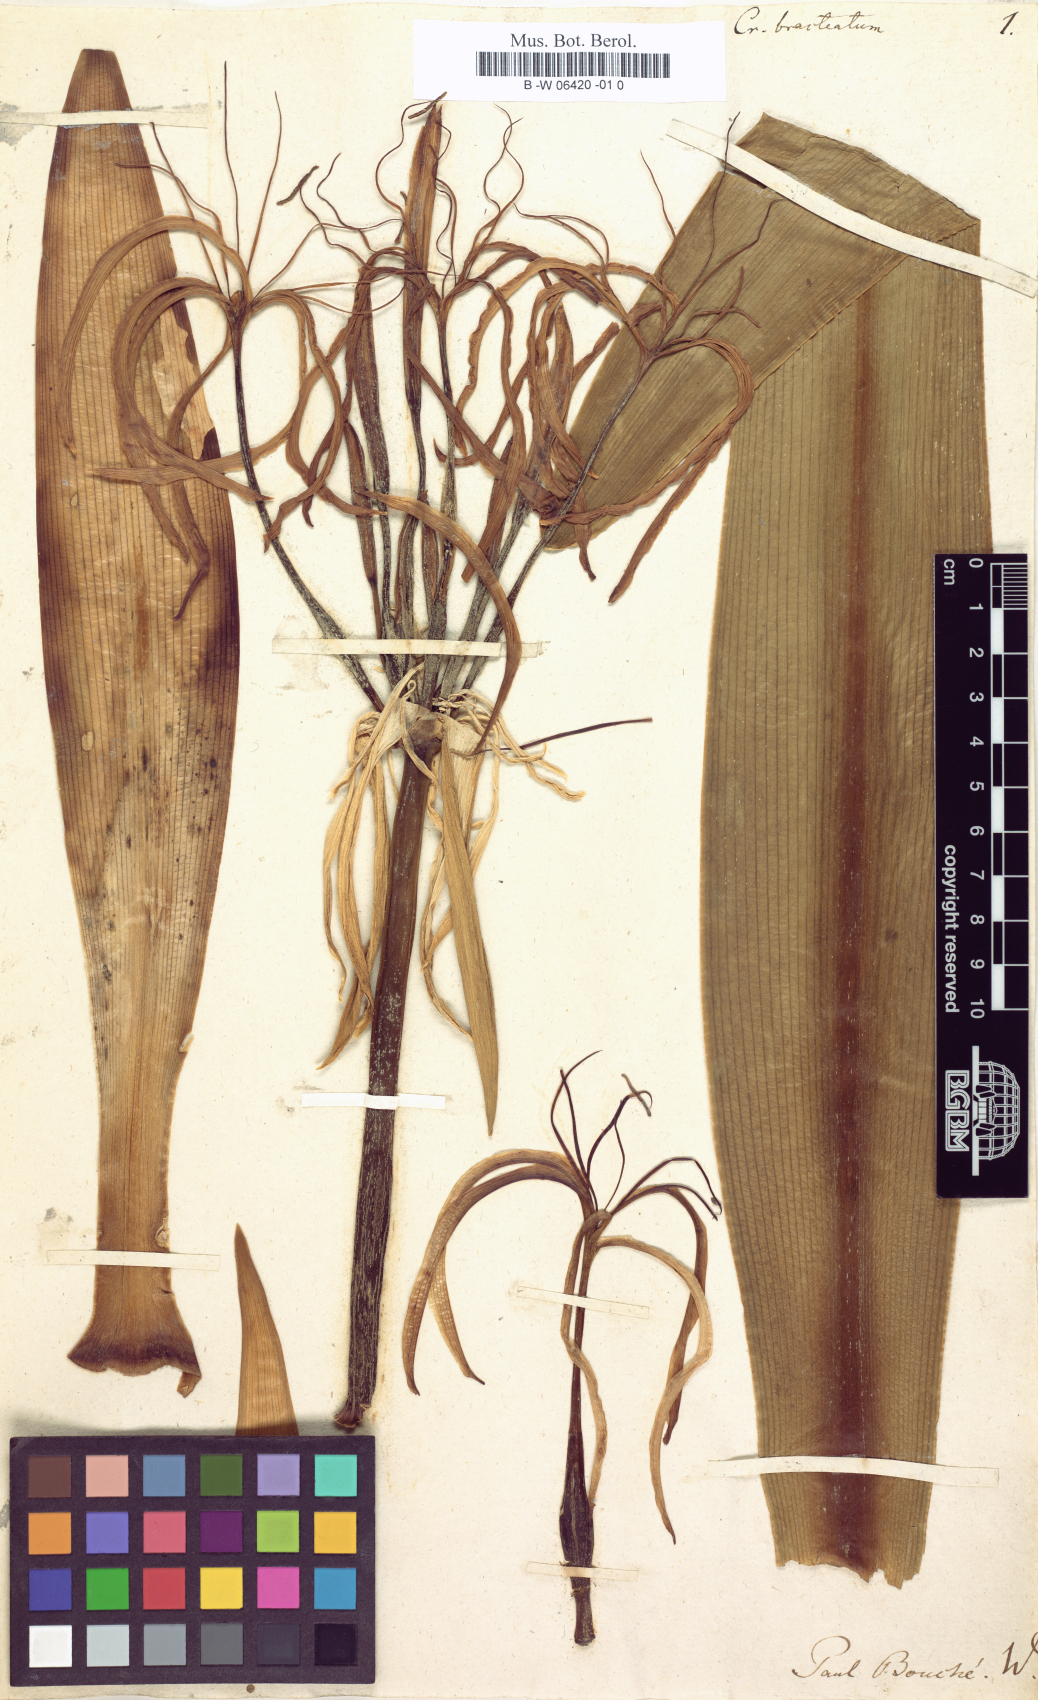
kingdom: Plantae
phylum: Tracheophyta
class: Liliopsida
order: Asparagales
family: Amaryllidaceae
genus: Crinum
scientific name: Crinum asiaticum
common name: Poisonbulb
